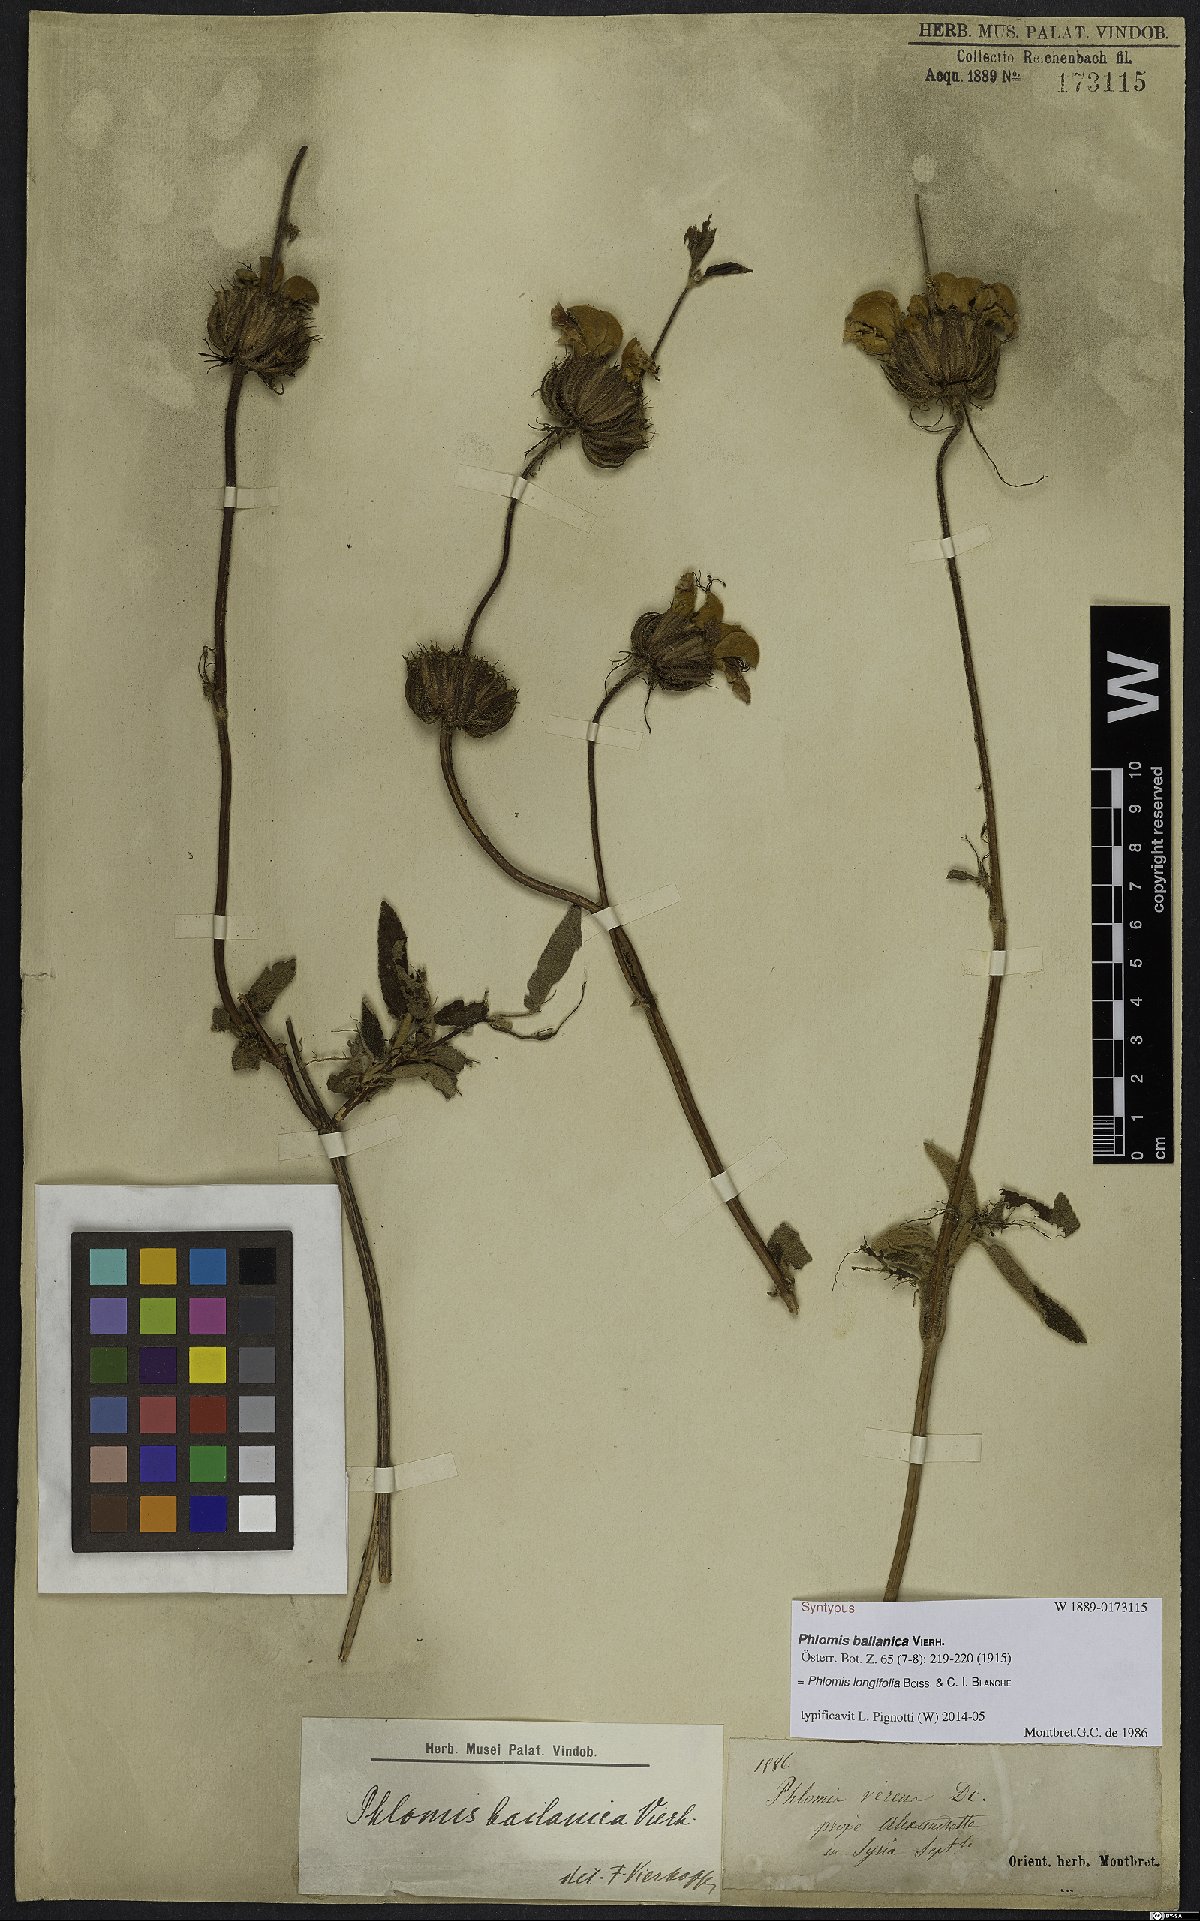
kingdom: Plantae
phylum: Tracheophyta
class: Magnoliopsida
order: Lamiales
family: Lamiaceae
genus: Phlomis
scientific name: Phlomis longifolia
